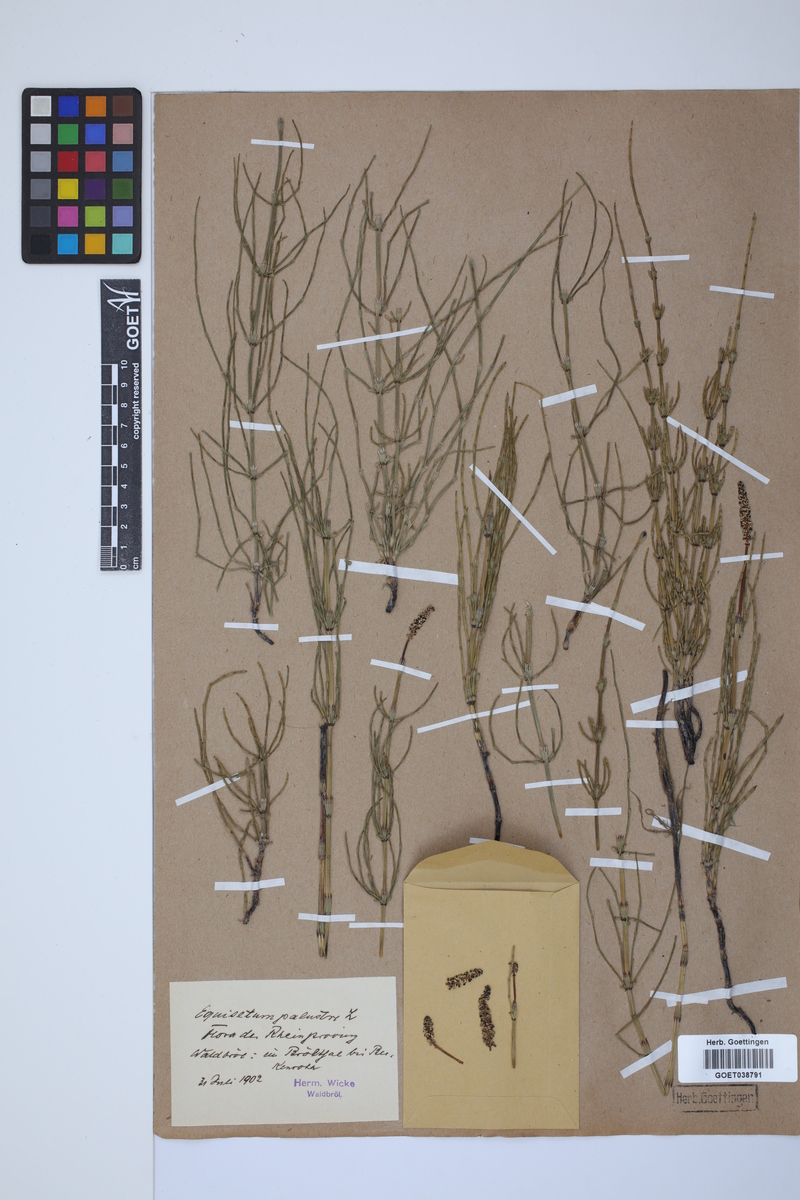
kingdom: Plantae
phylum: Tracheophyta
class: Polypodiopsida
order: Equisetales
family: Equisetaceae
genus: Equisetum
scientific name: Equisetum palustre
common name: Marsh horsetail
